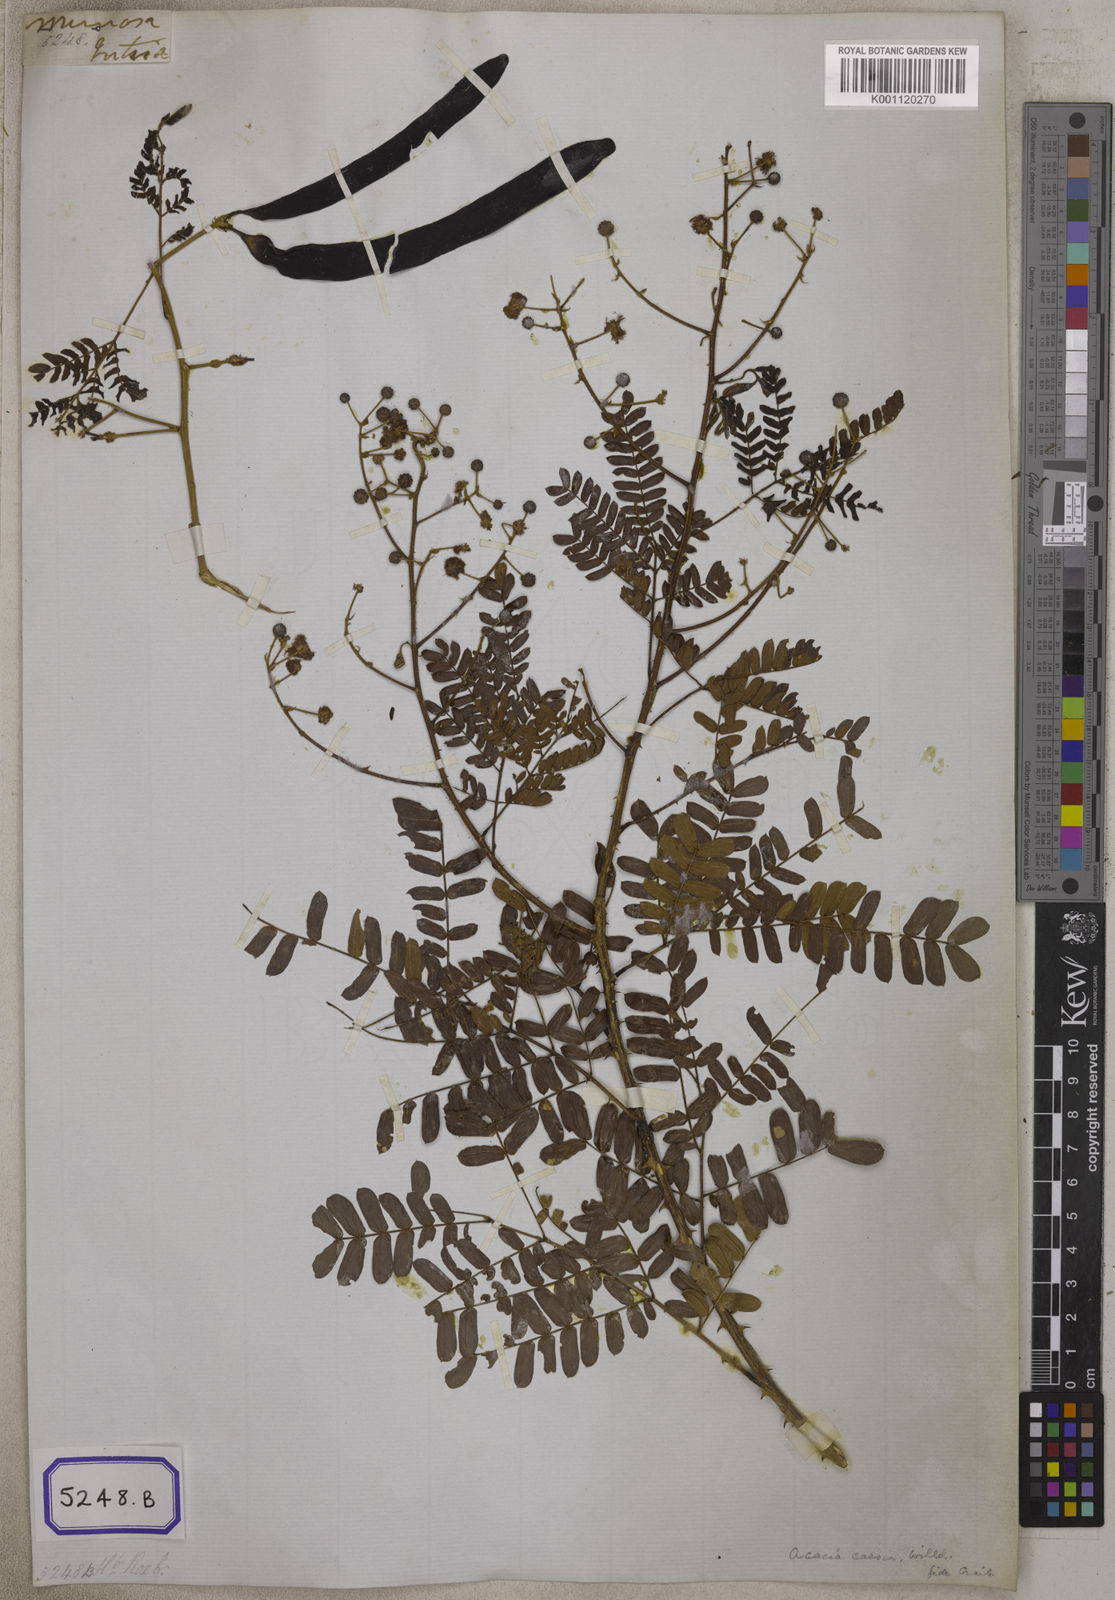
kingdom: Plantae
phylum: Tracheophyta
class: Magnoliopsida
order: Fabales
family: Fabaceae
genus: Senegalia
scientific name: Senegalia intsia
